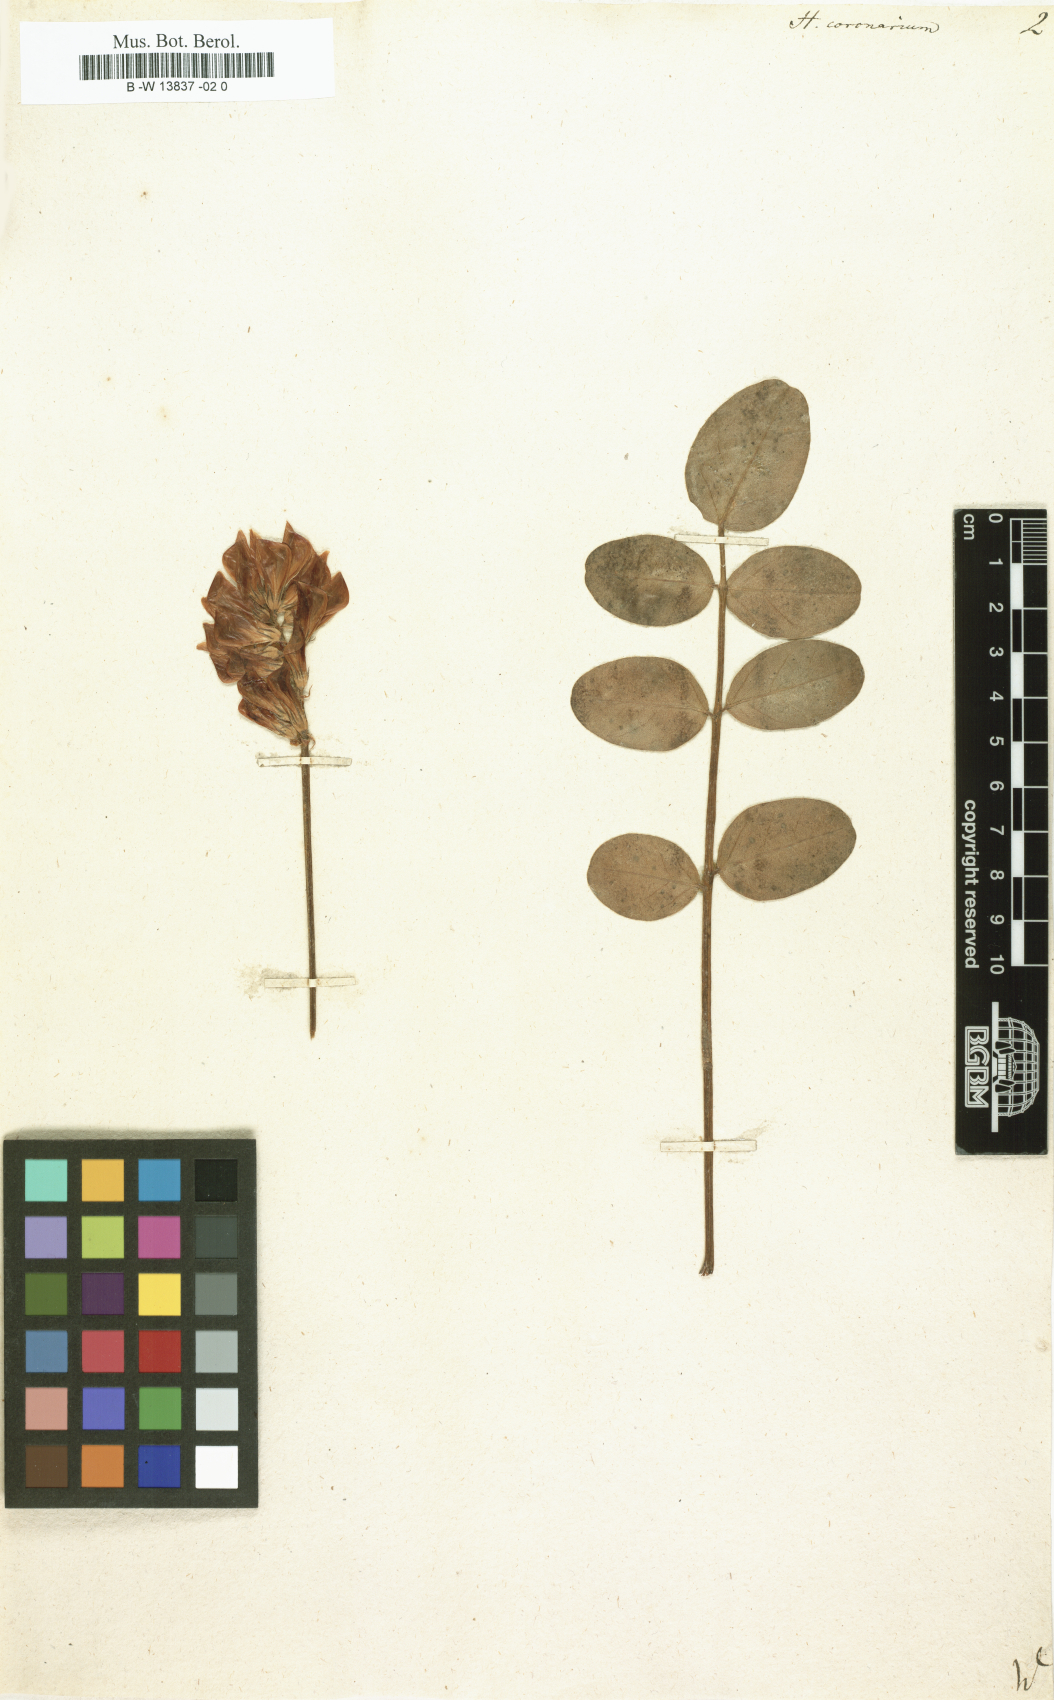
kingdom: Plantae
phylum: Tracheophyta
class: Magnoliopsida
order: Fabales
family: Fabaceae
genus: Sulla
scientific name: Sulla coronaria
